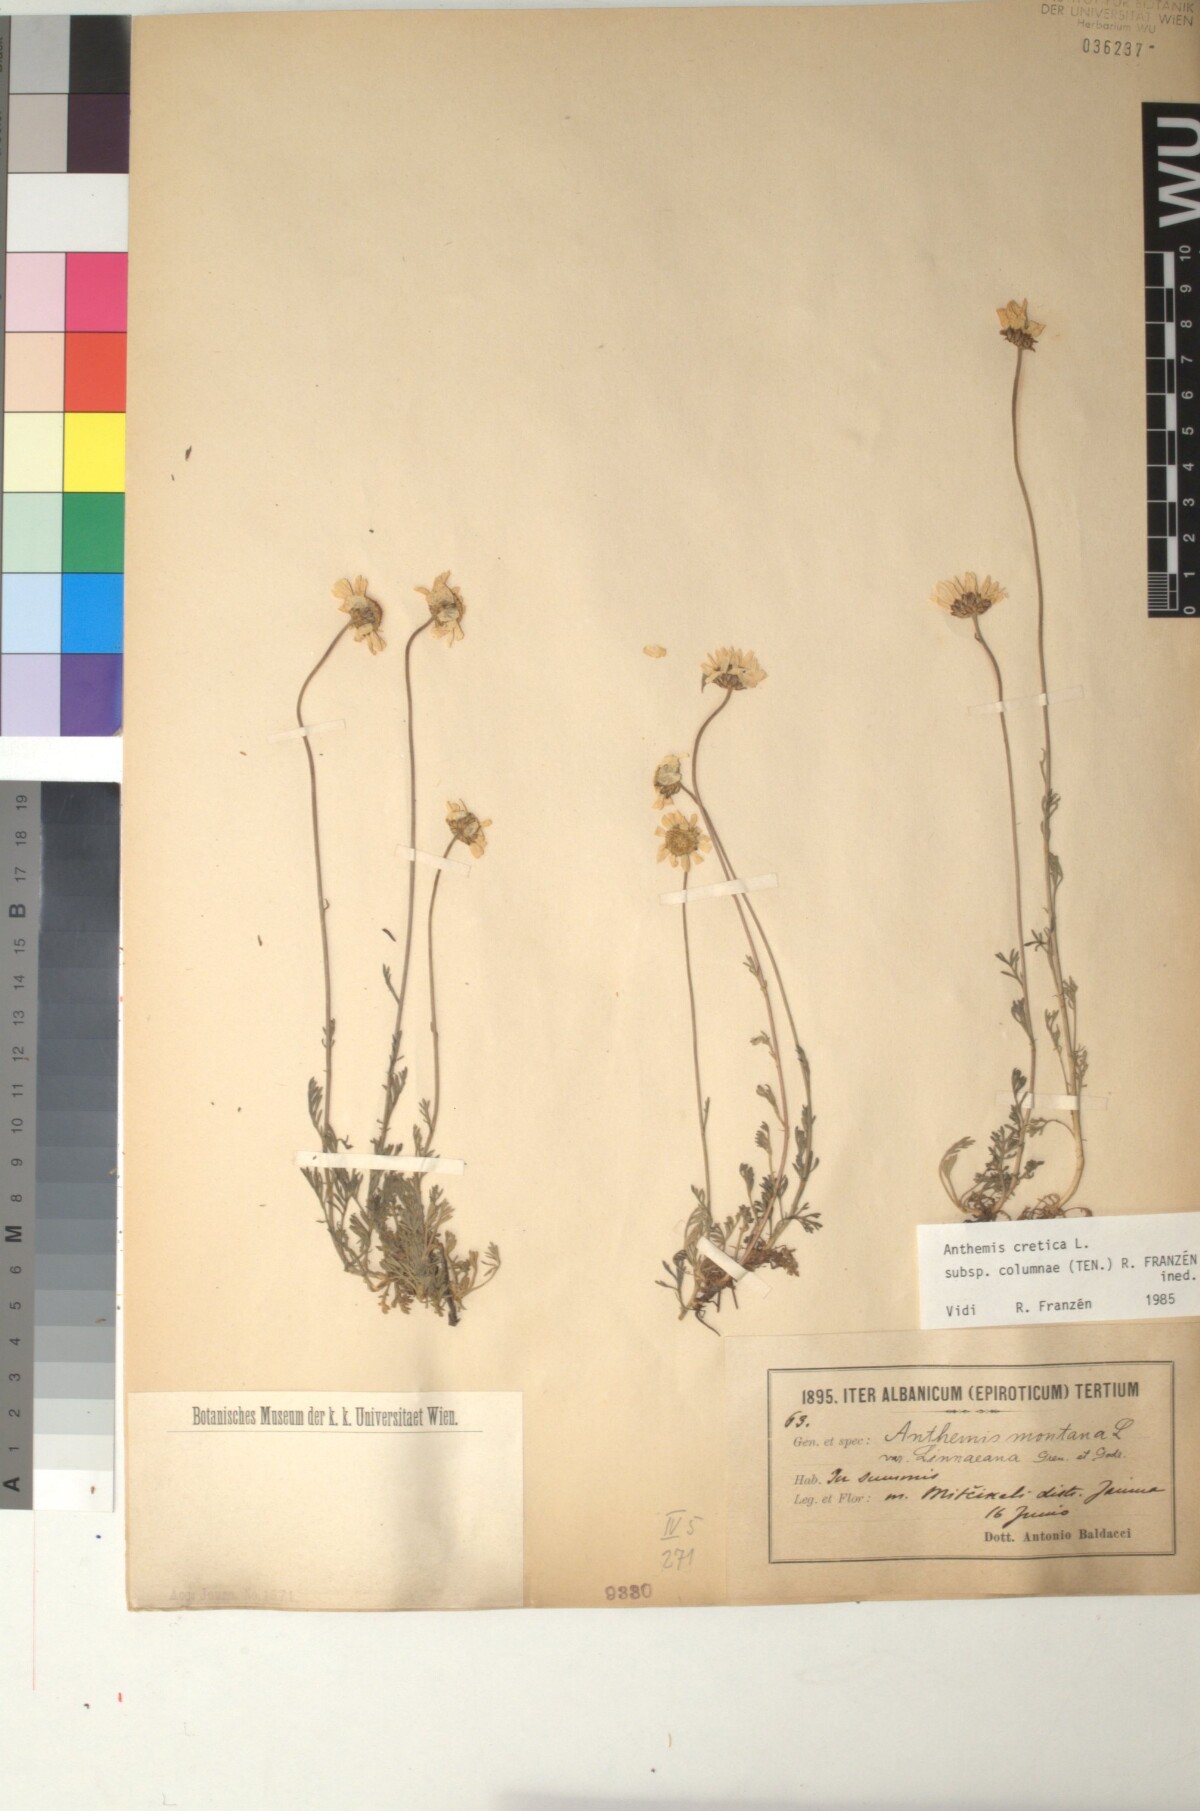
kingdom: Plantae
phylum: Tracheophyta
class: Magnoliopsida
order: Asterales
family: Asteraceae
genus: Anthemis
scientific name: Anthemis cretica
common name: Mountain dog-daisy
